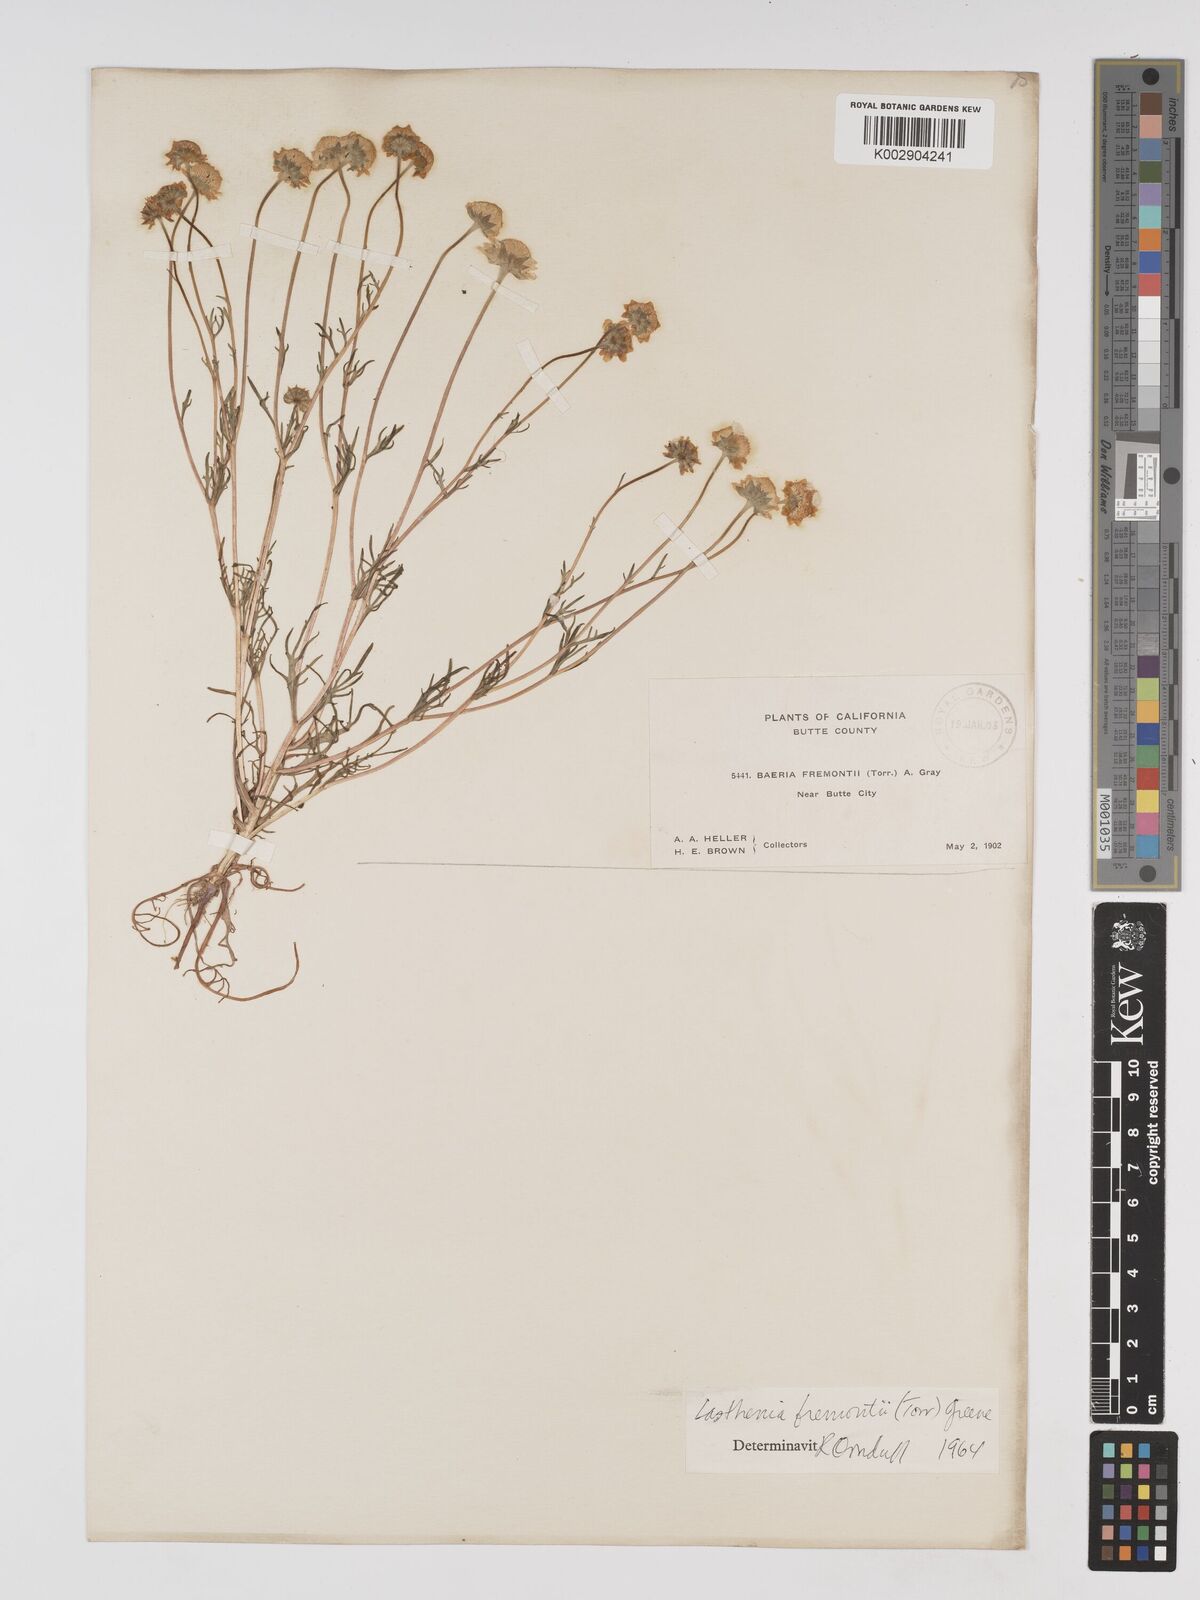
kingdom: Plantae
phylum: Tracheophyta
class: Magnoliopsida
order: Asterales
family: Asteraceae
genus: Lasthenia
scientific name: Lasthenia fremontii
